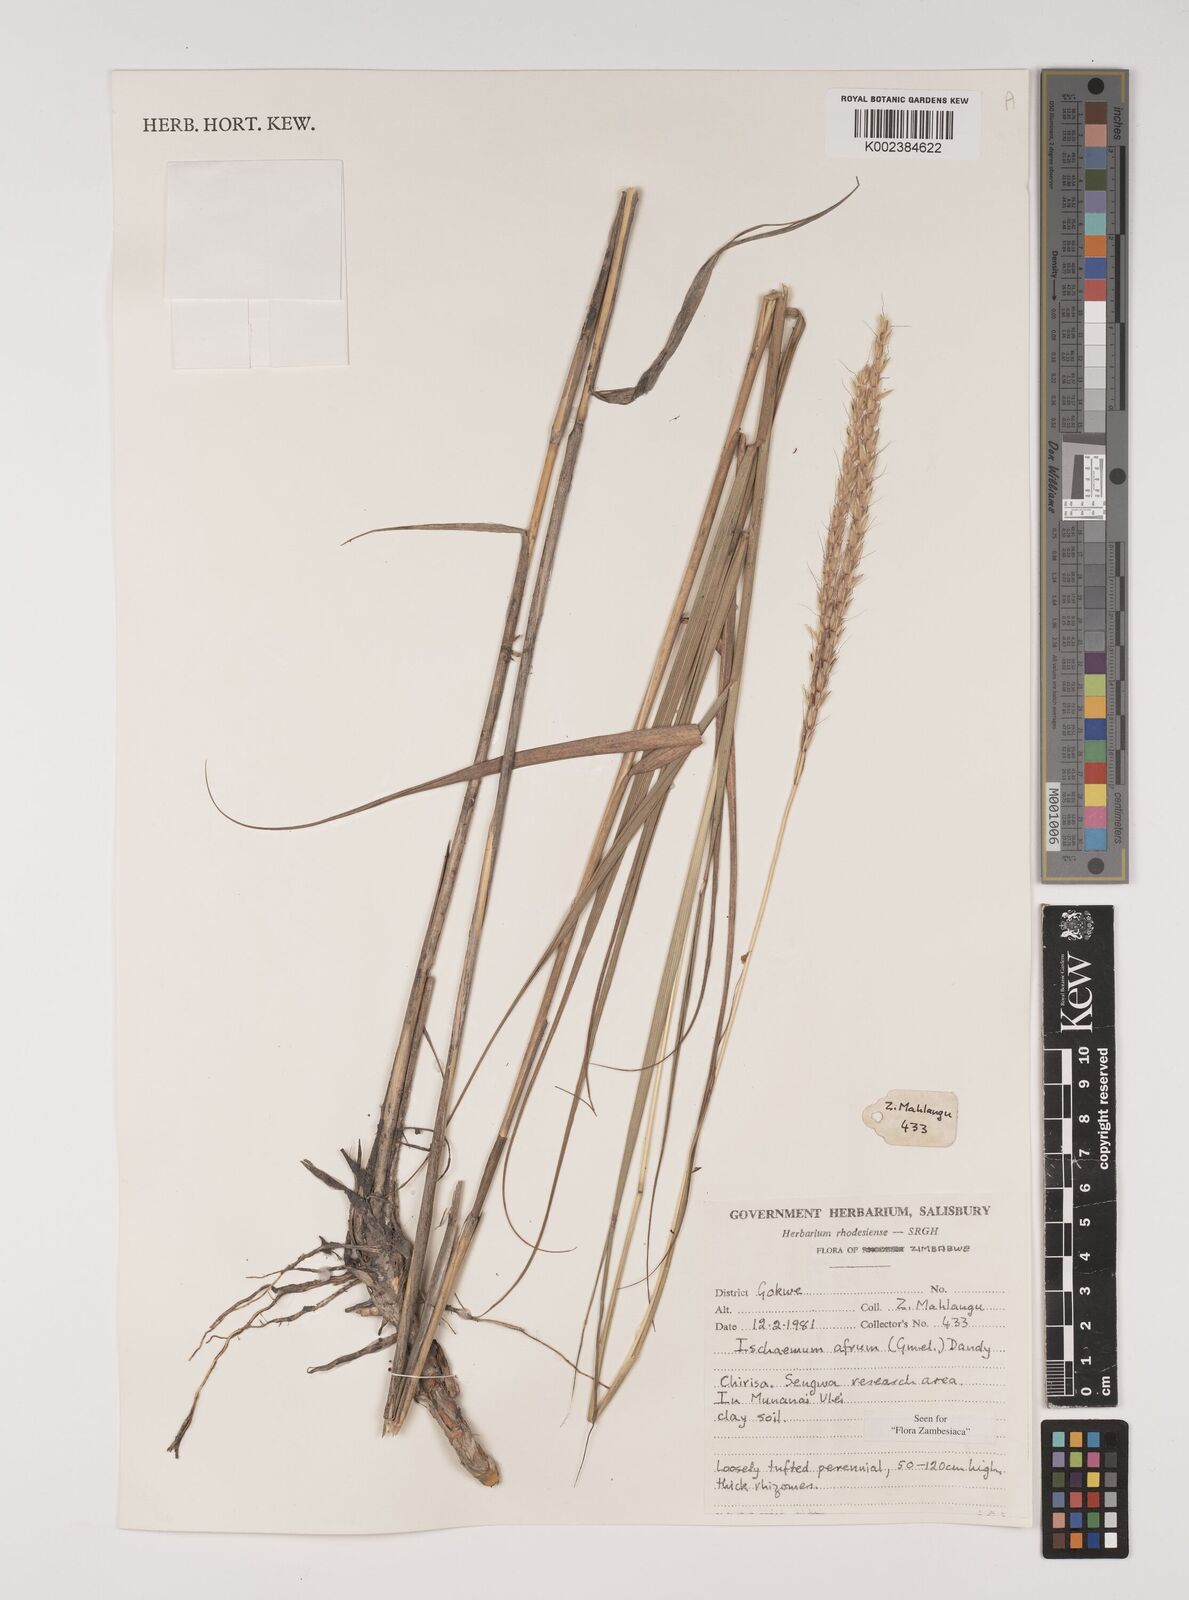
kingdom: Plantae
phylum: Tracheophyta
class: Liliopsida
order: Poales
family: Poaceae
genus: Ischaemum
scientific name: Ischaemum afrum
